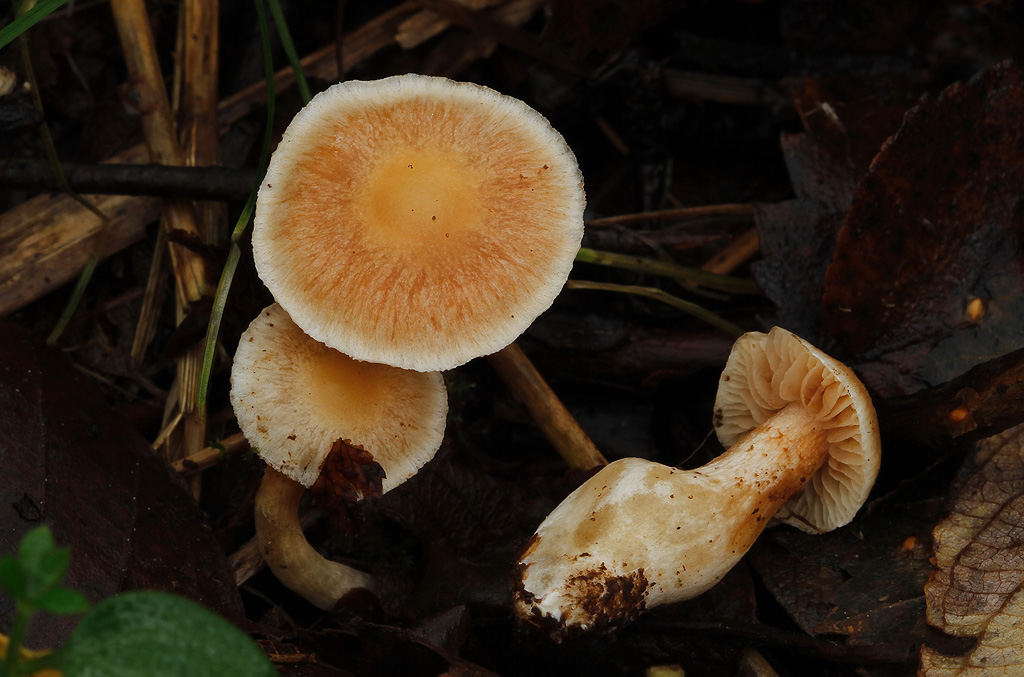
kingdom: Fungi
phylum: Basidiomycota
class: Agaricomycetes
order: Agaricales
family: Cortinariaceae
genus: Cortinarius
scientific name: Cortinarius croceocristallinus
